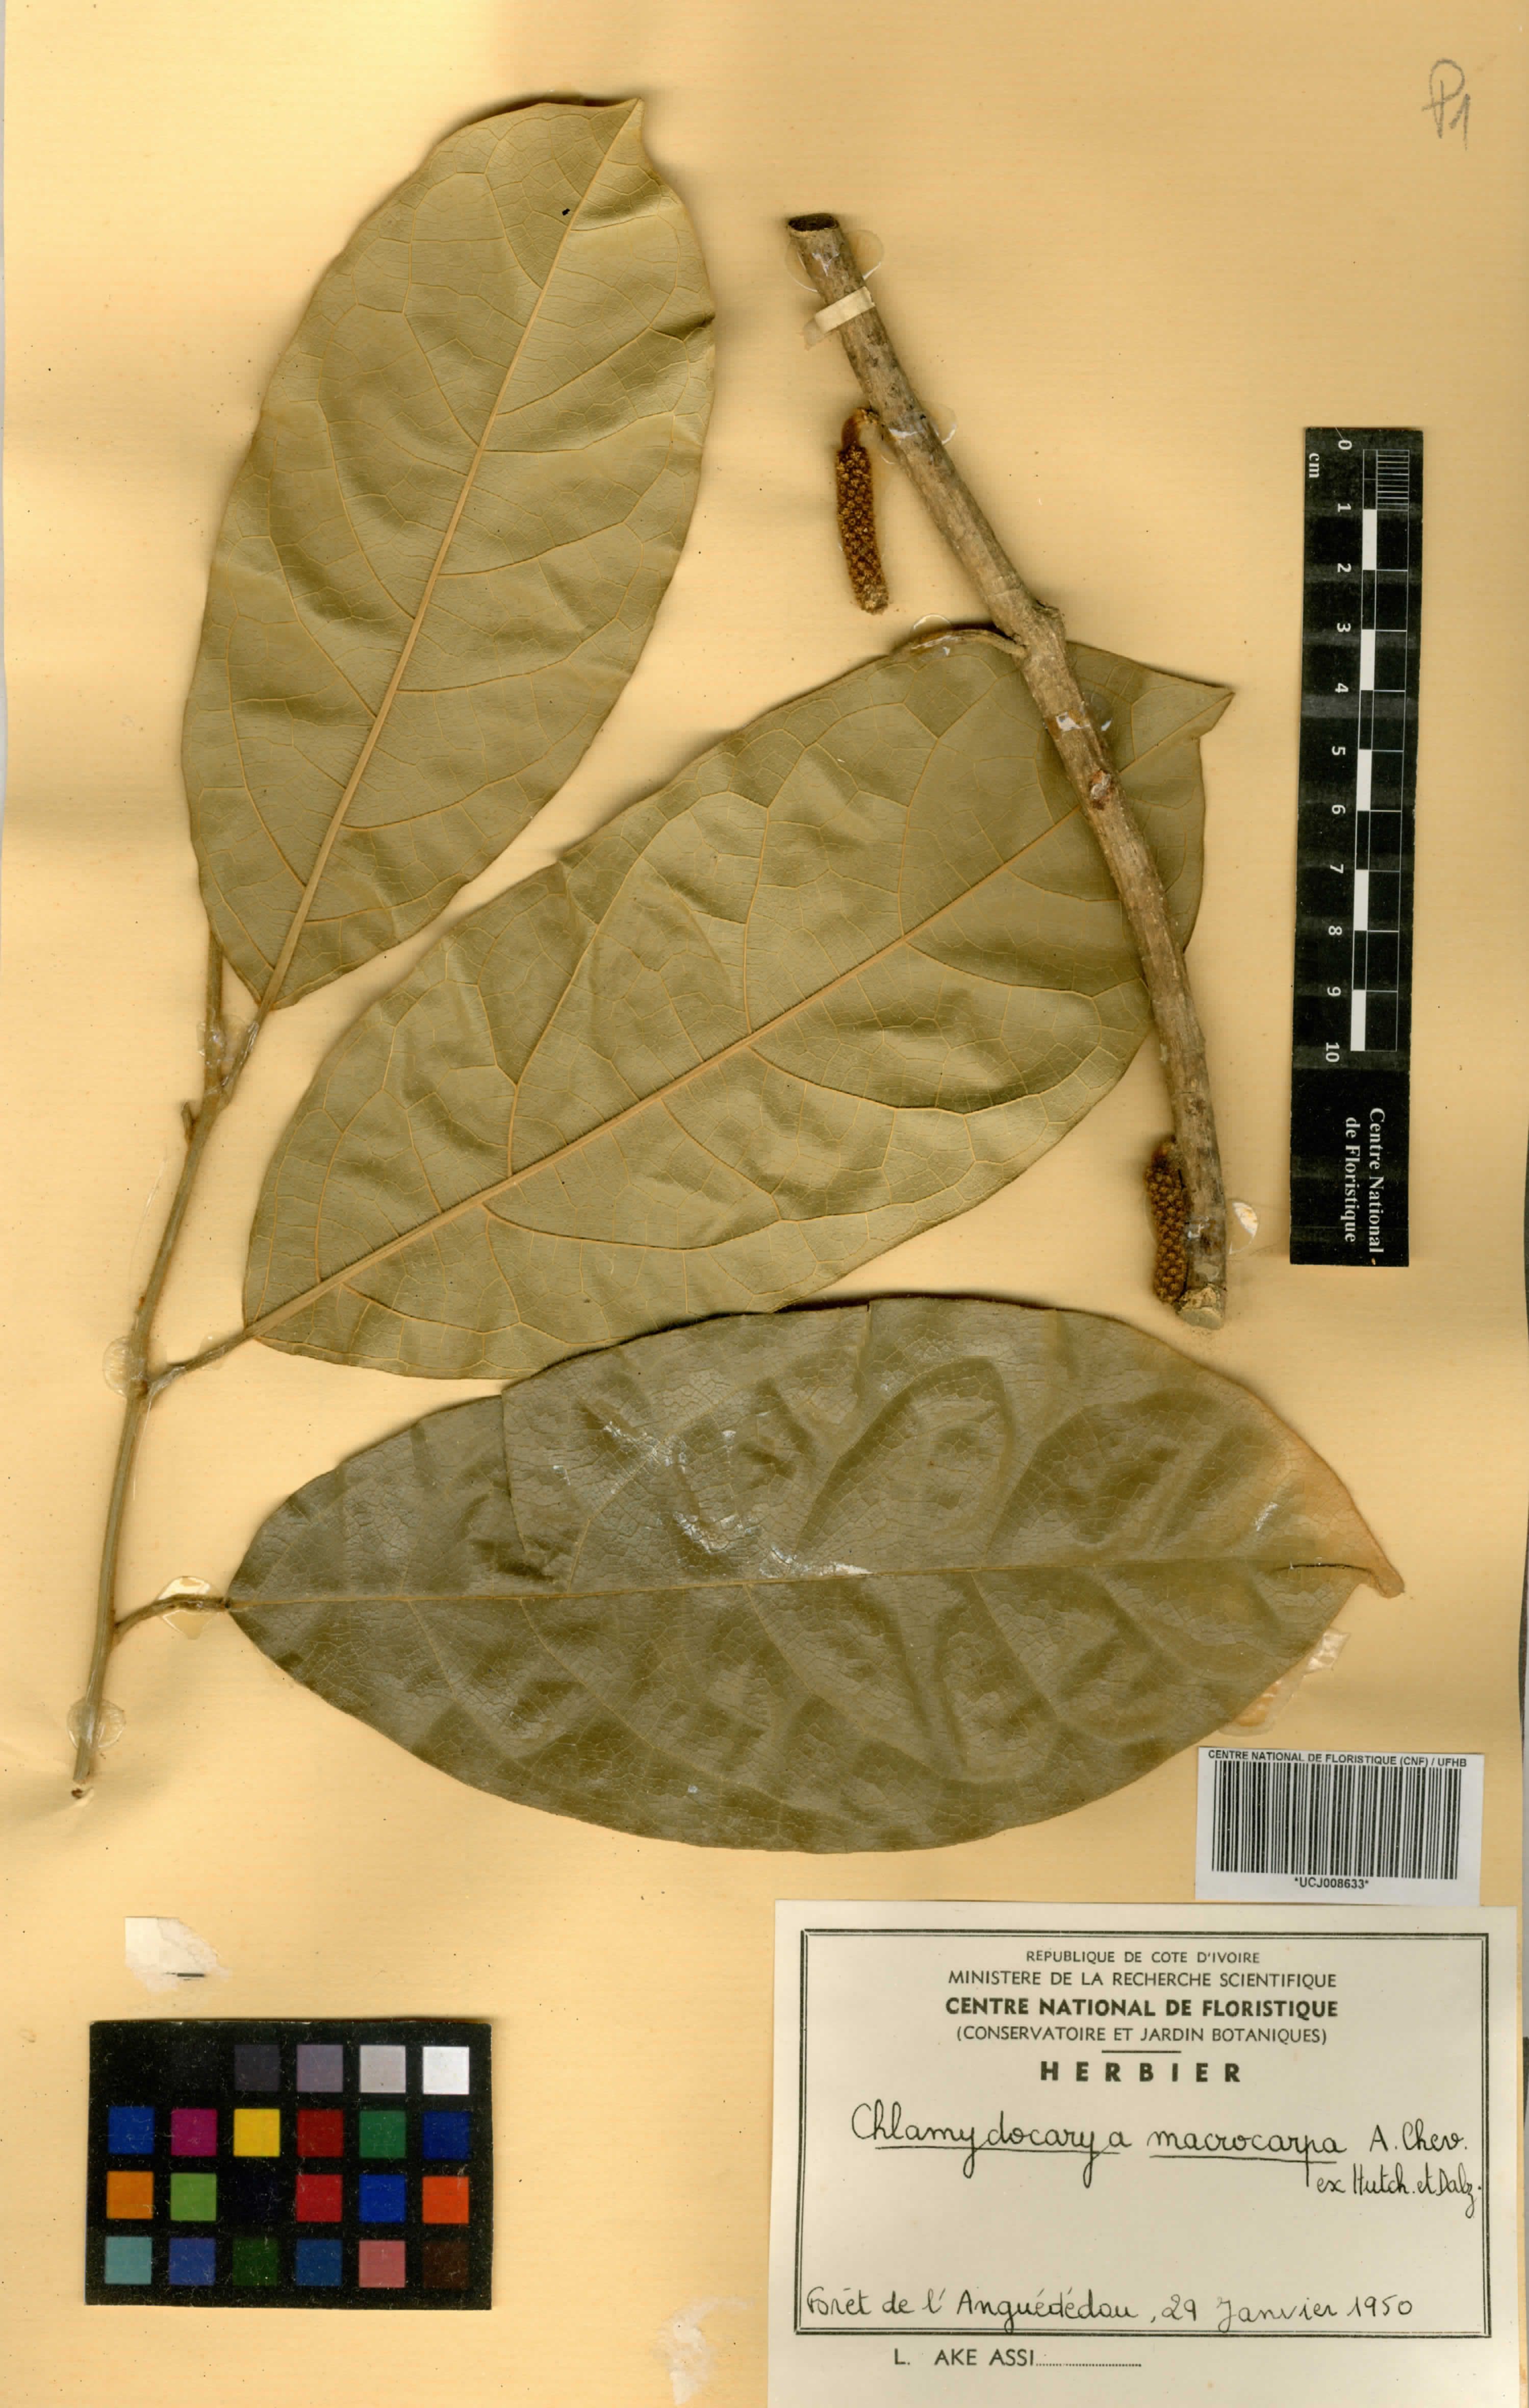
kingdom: Plantae
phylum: Tracheophyta
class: Magnoliopsida
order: Icacinales
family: Icacinaceae
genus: Pyrenacantha
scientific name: Pyrenacantha macrocarpa
